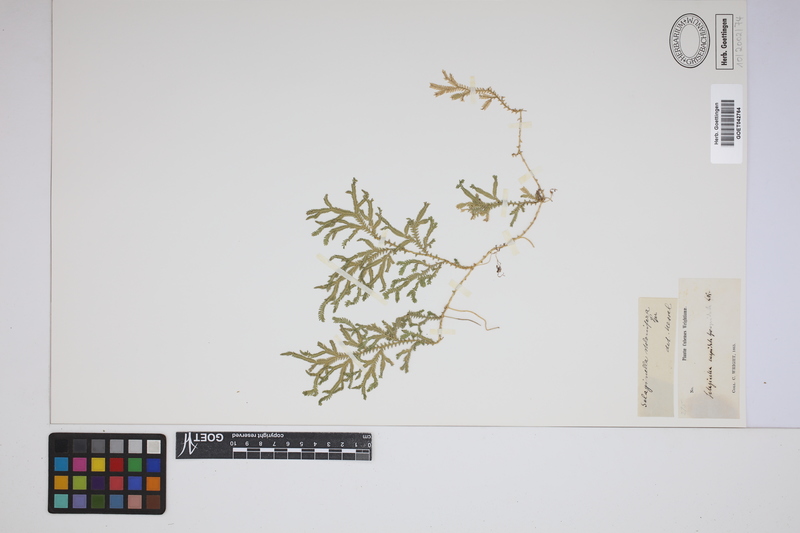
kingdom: Plantae
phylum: Tracheophyta
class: Lycopodiopsida
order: Selaginellales
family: Selaginellaceae
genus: Selaginella
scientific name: Selaginella plumosa
